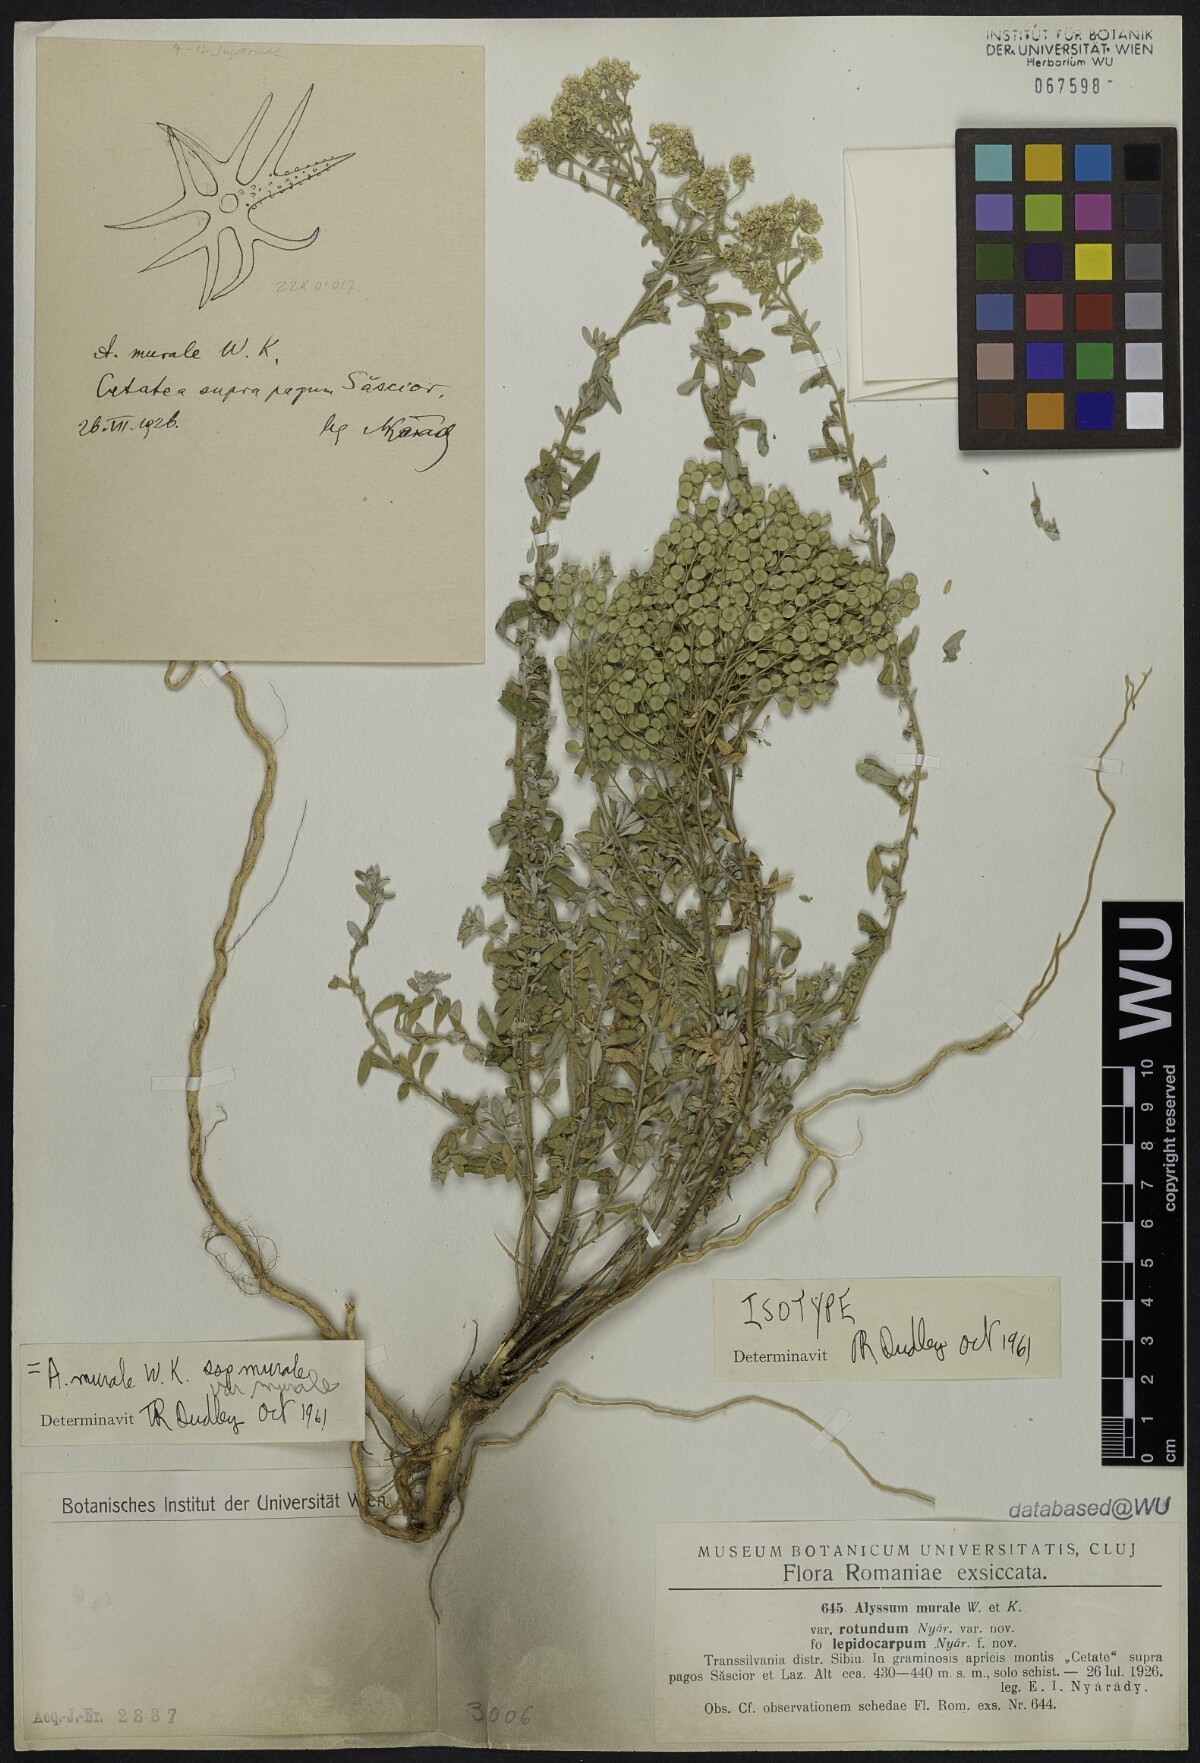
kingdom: Plantae
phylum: Tracheophyta
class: Magnoliopsida
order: Brassicales
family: Brassicaceae
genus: Odontarrhena
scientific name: Odontarrhena muralis
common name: Rock alyssum
